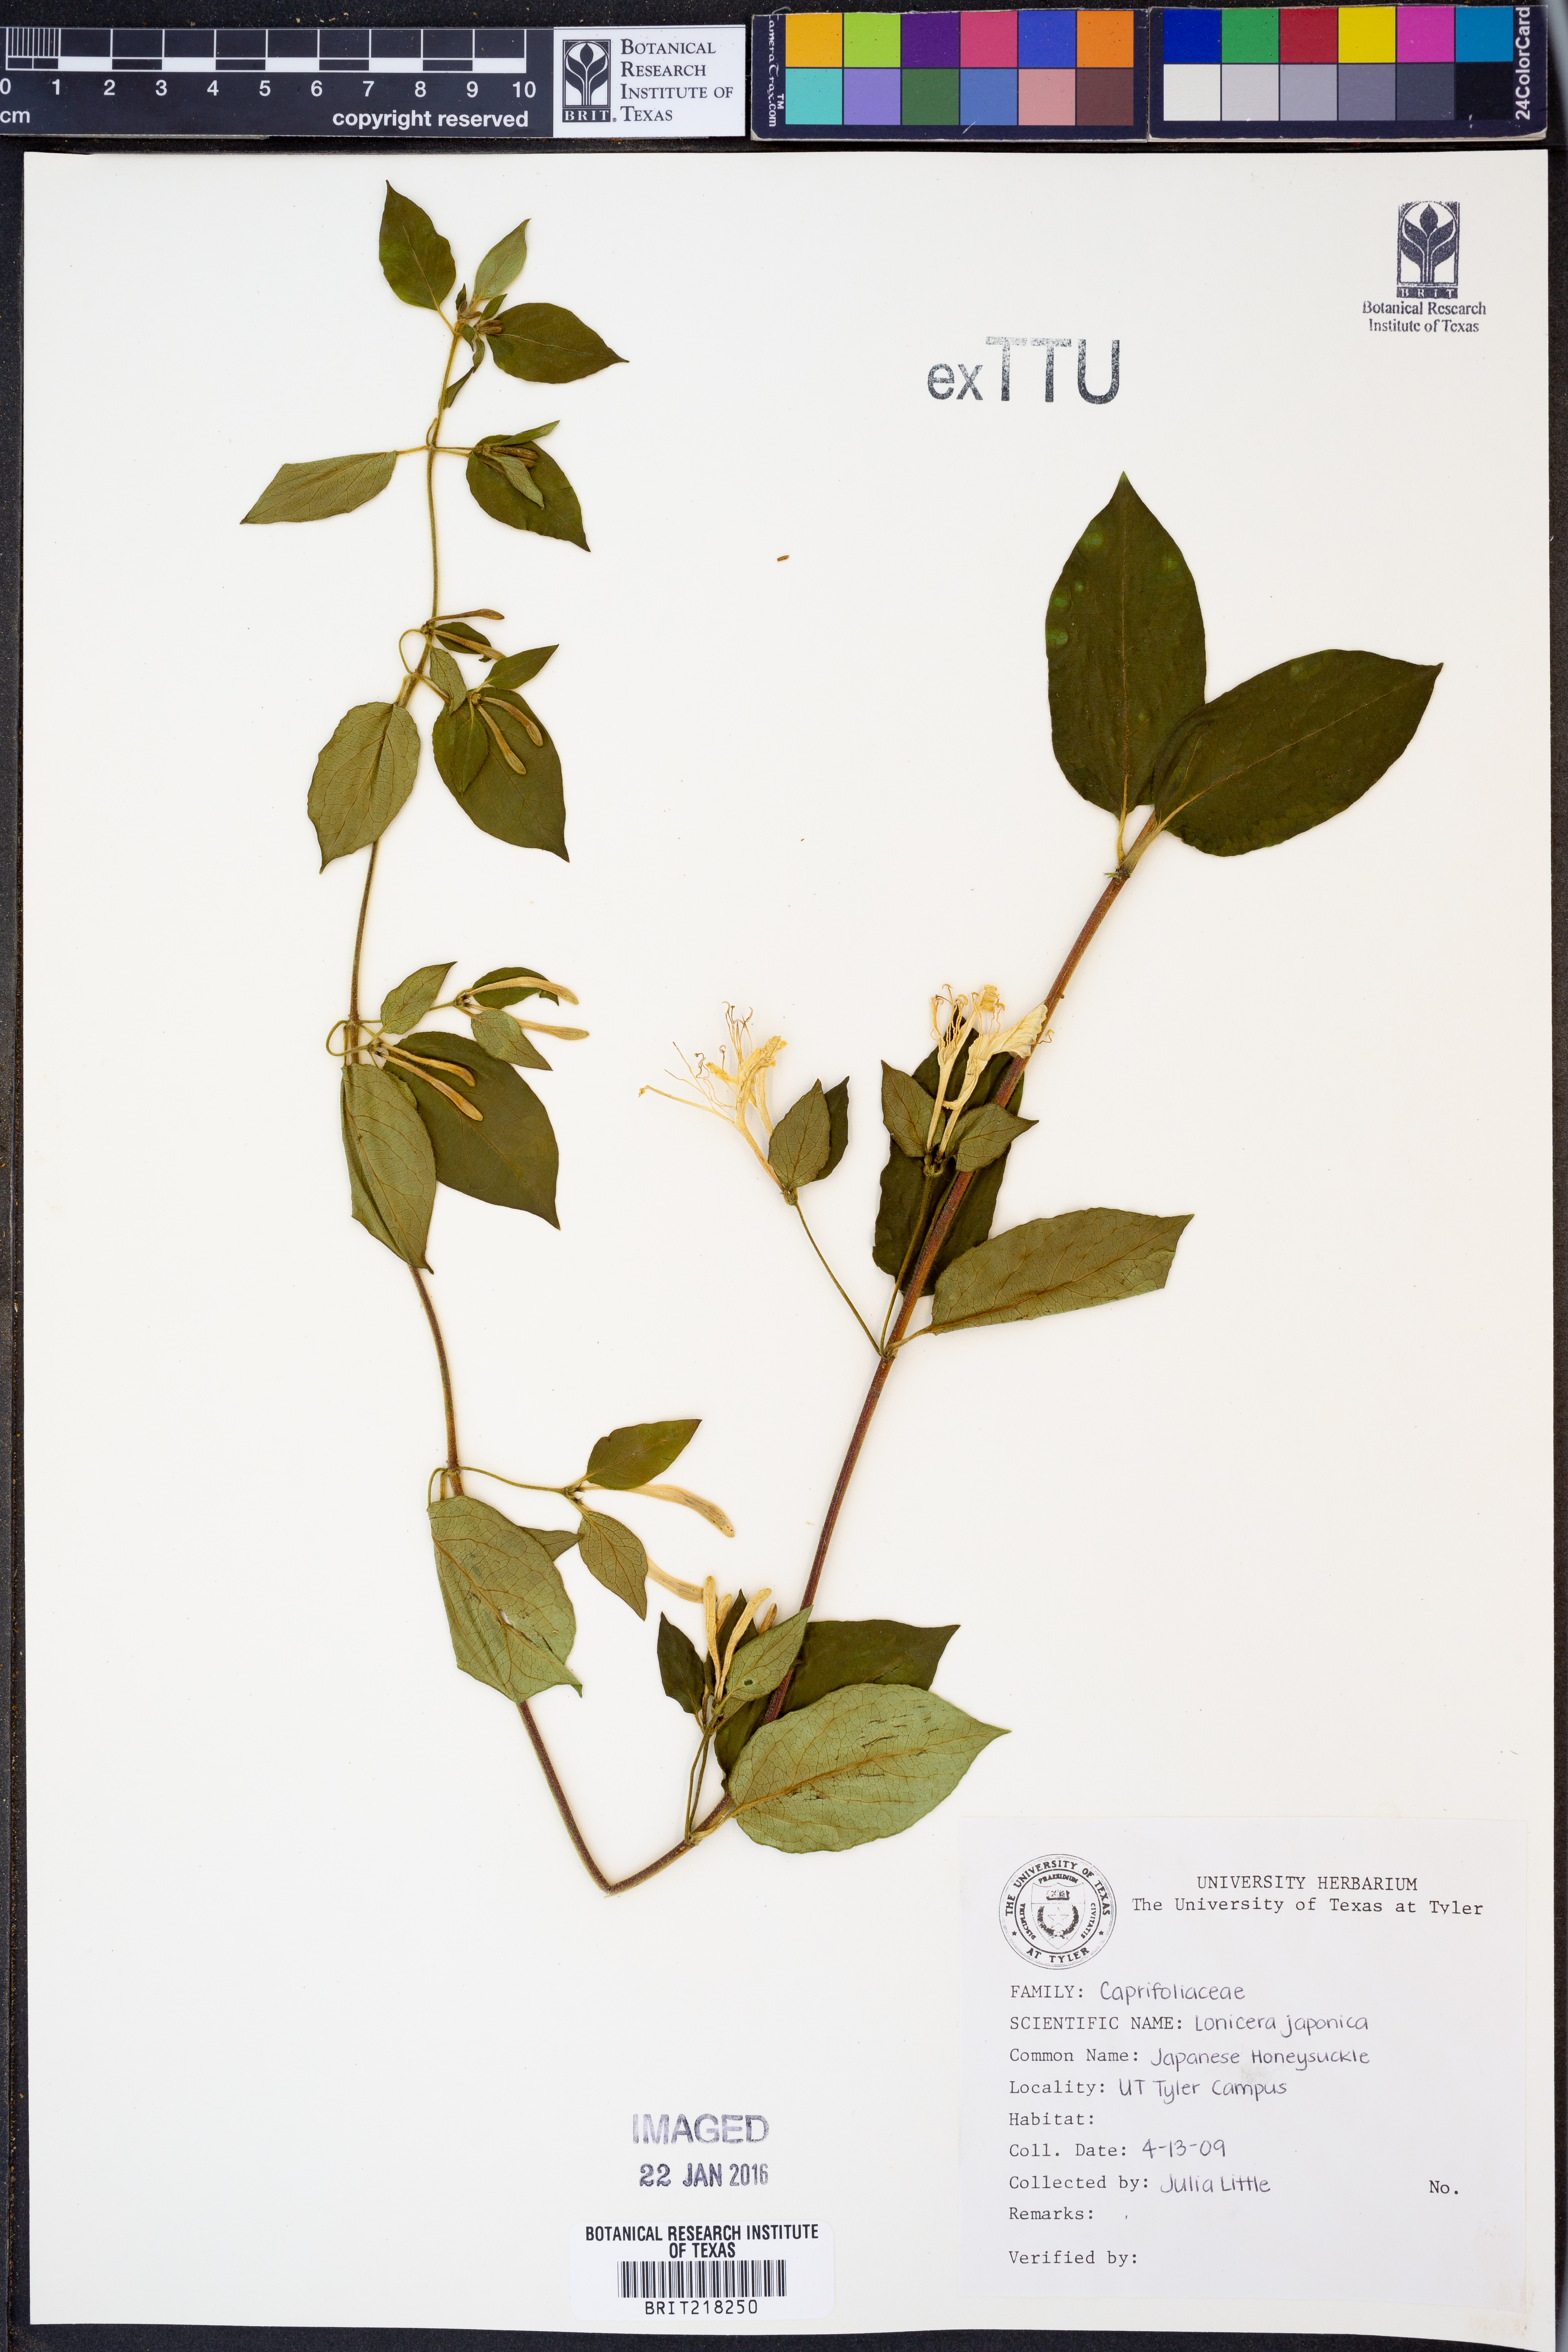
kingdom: Plantae
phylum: Tracheophyta
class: Magnoliopsida
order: Dipsacales
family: Caprifoliaceae
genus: Lonicera
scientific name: Lonicera japonica
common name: Japanese honeysuckle
